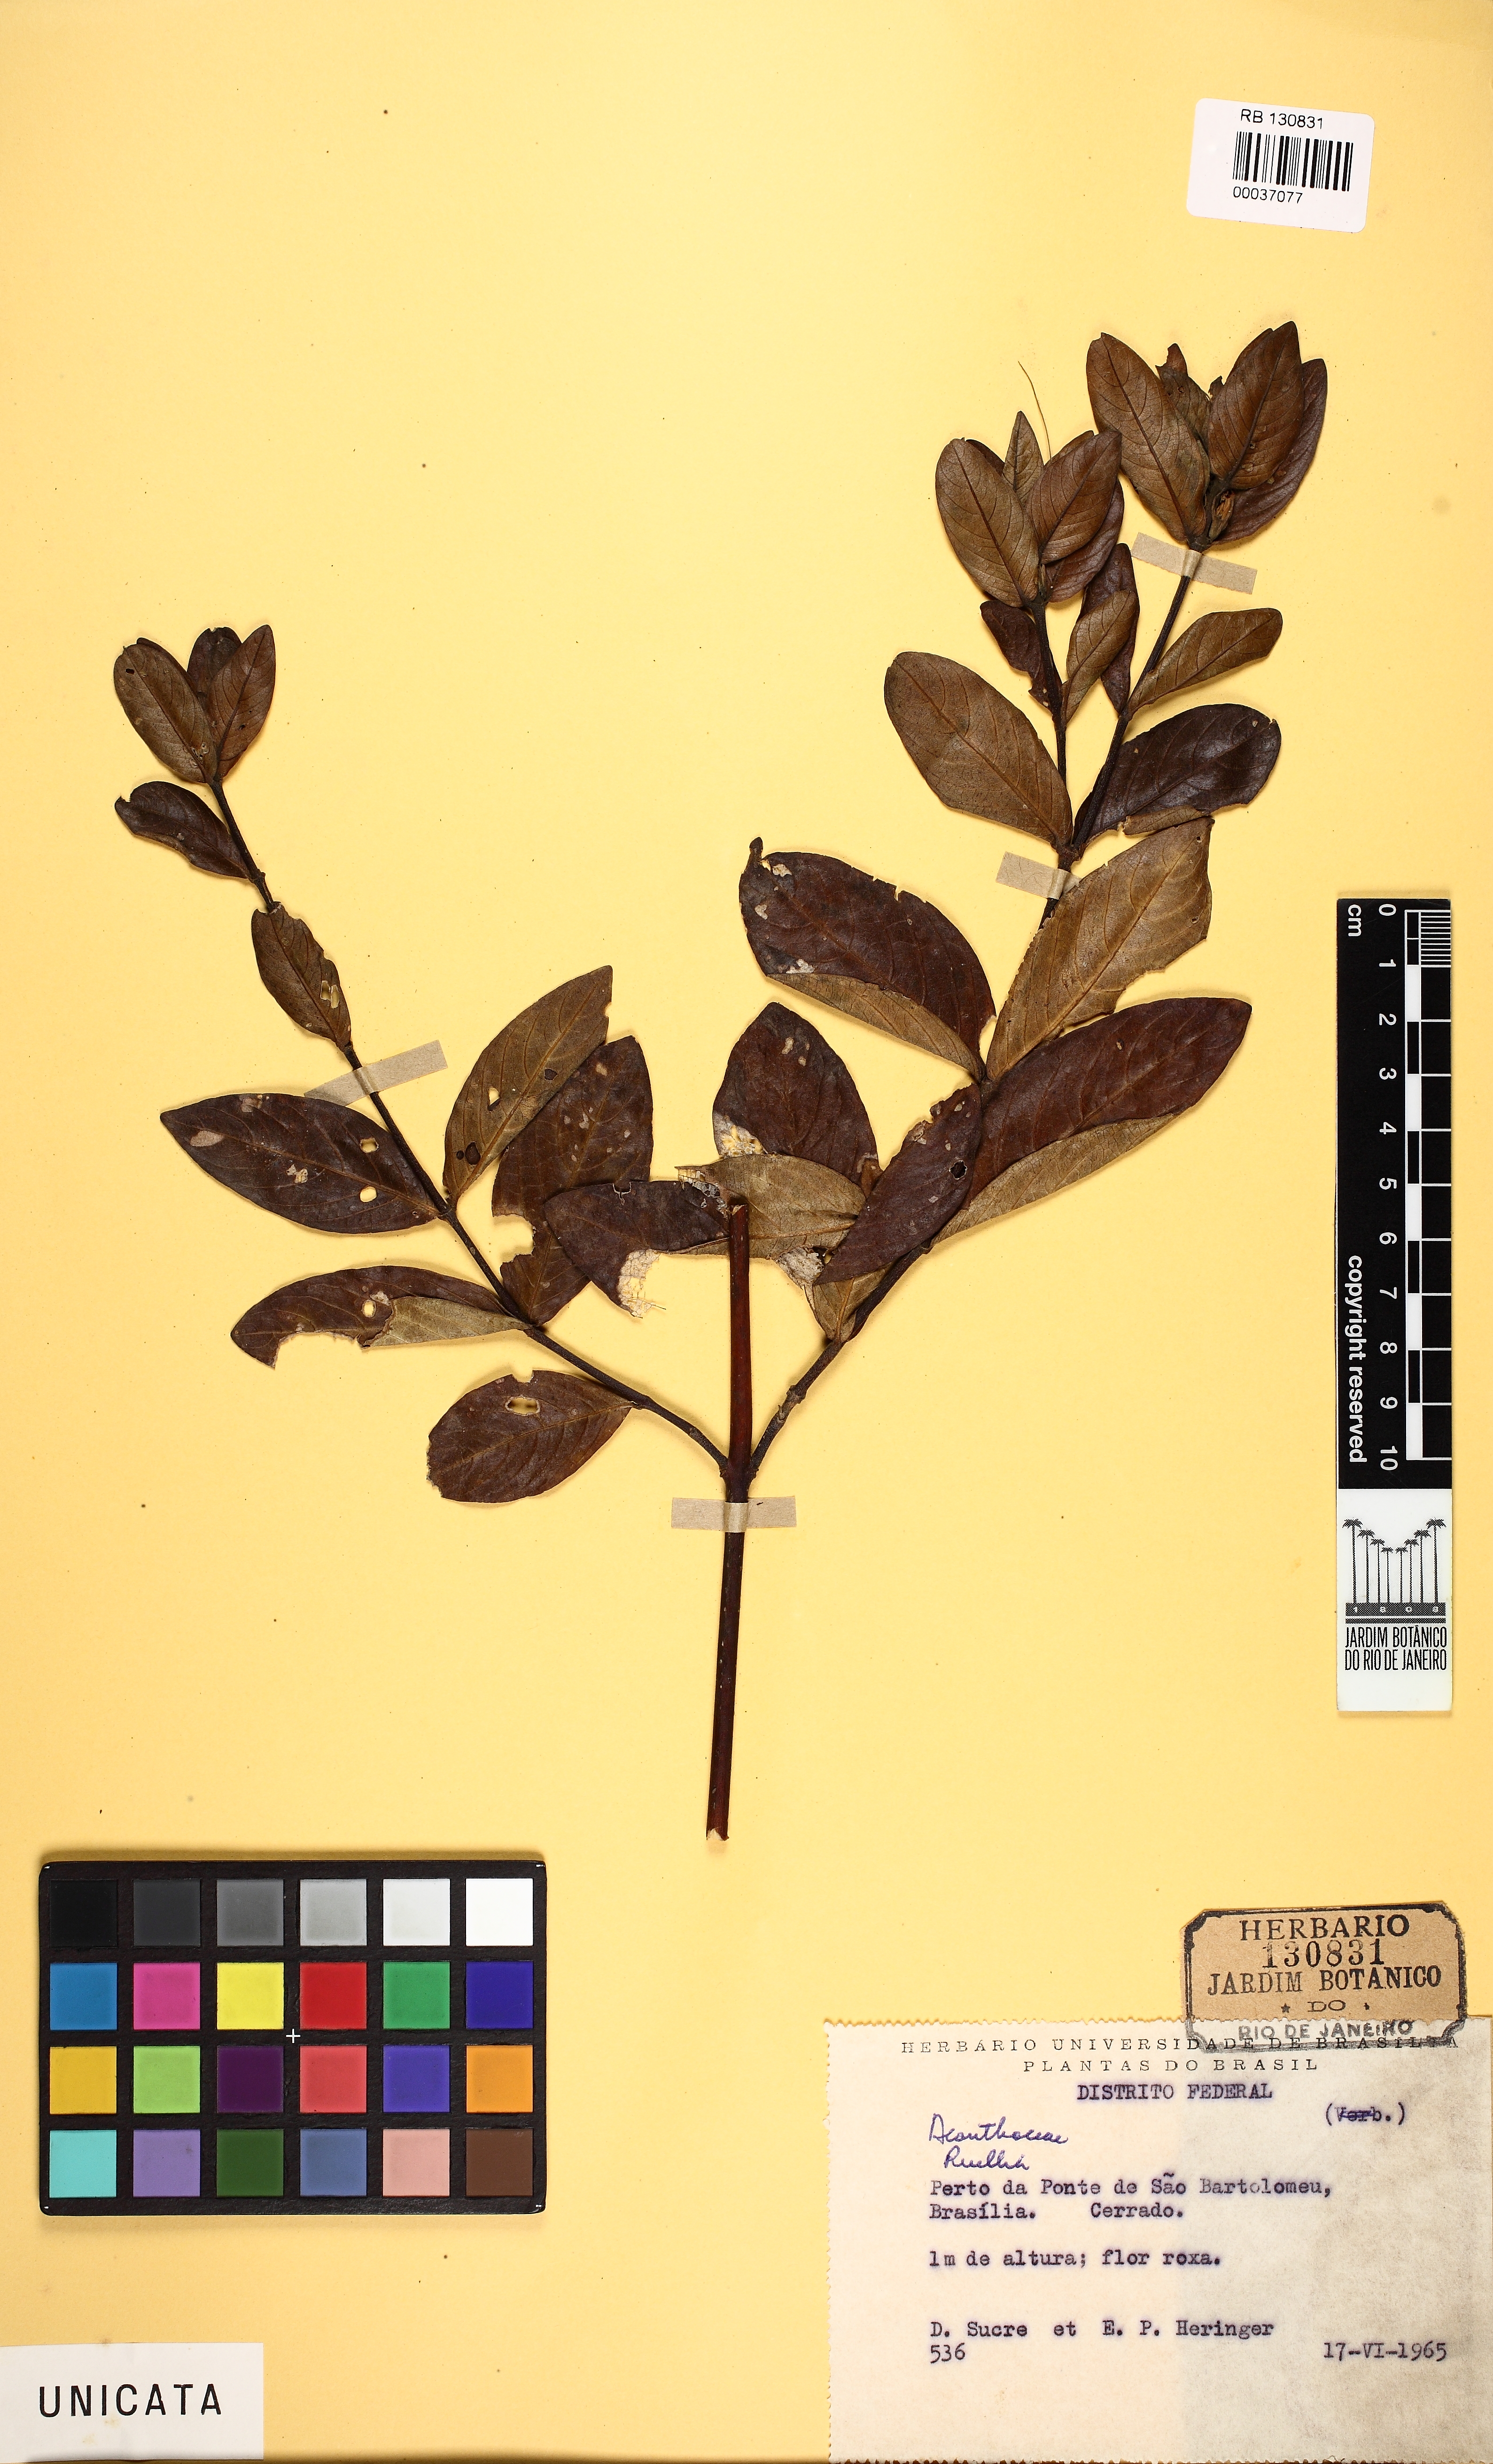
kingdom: Plantae
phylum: Tracheophyta
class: Magnoliopsida
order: Lamiales
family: Acanthaceae
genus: Ruellia
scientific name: Ruellia nitens
